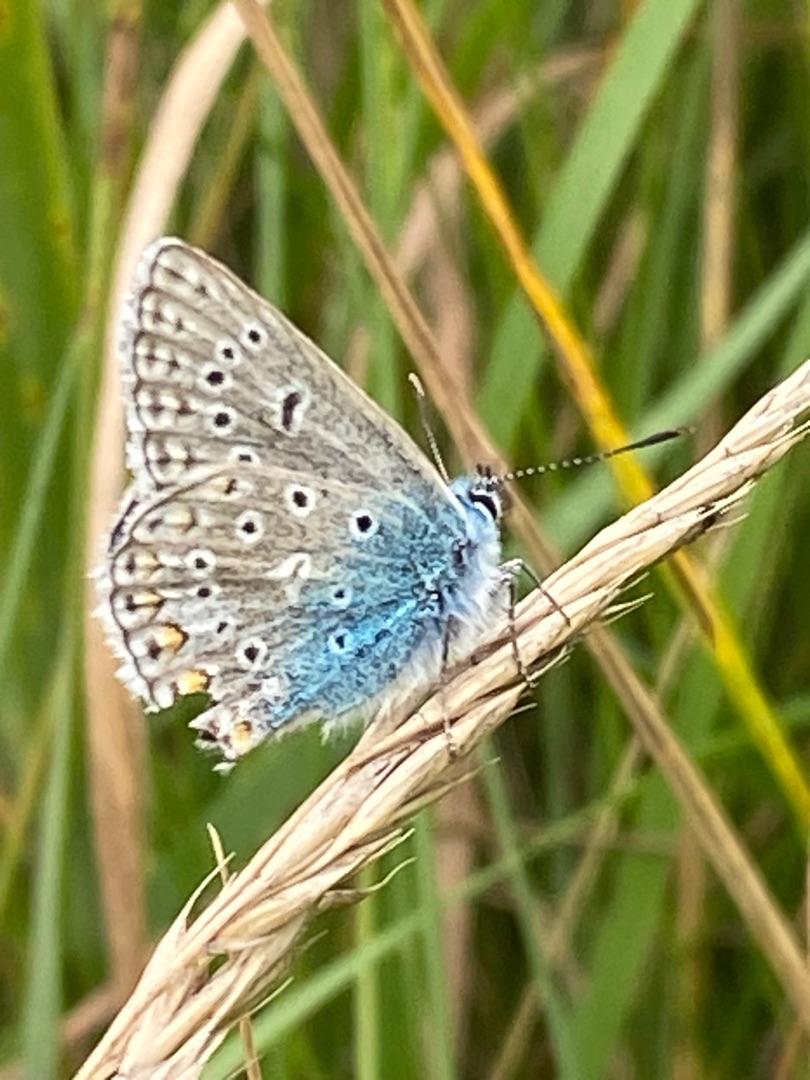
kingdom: Animalia
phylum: Arthropoda
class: Insecta
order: Lepidoptera
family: Lycaenidae
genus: Polyommatus
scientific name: Polyommatus icarus
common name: Almindelig blåfugl
